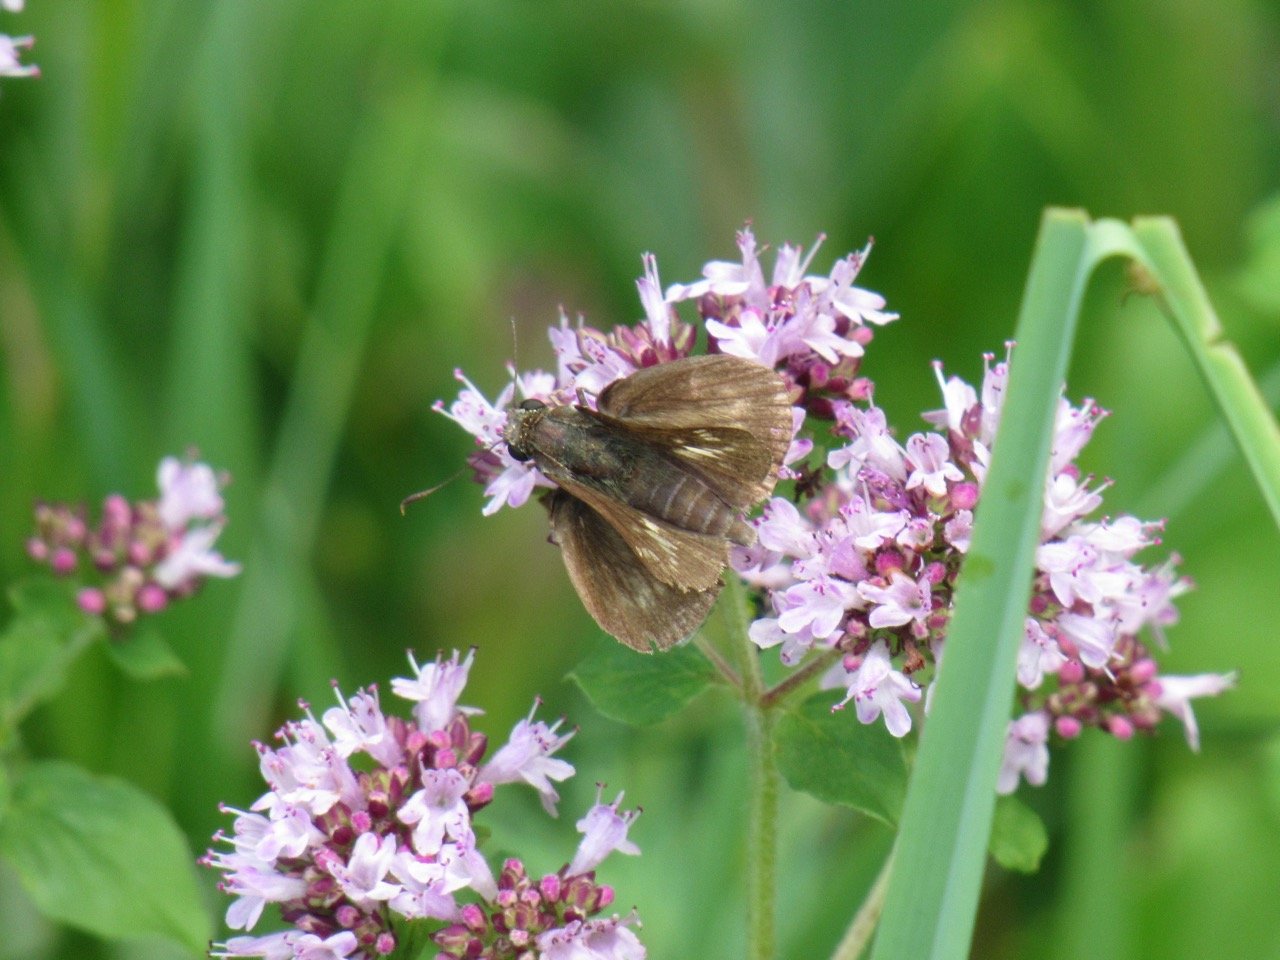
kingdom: Animalia
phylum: Arthropoda
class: Insecta
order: Lepidoptera
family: Hesperiidae
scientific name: Hesperiidae
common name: Skippers
